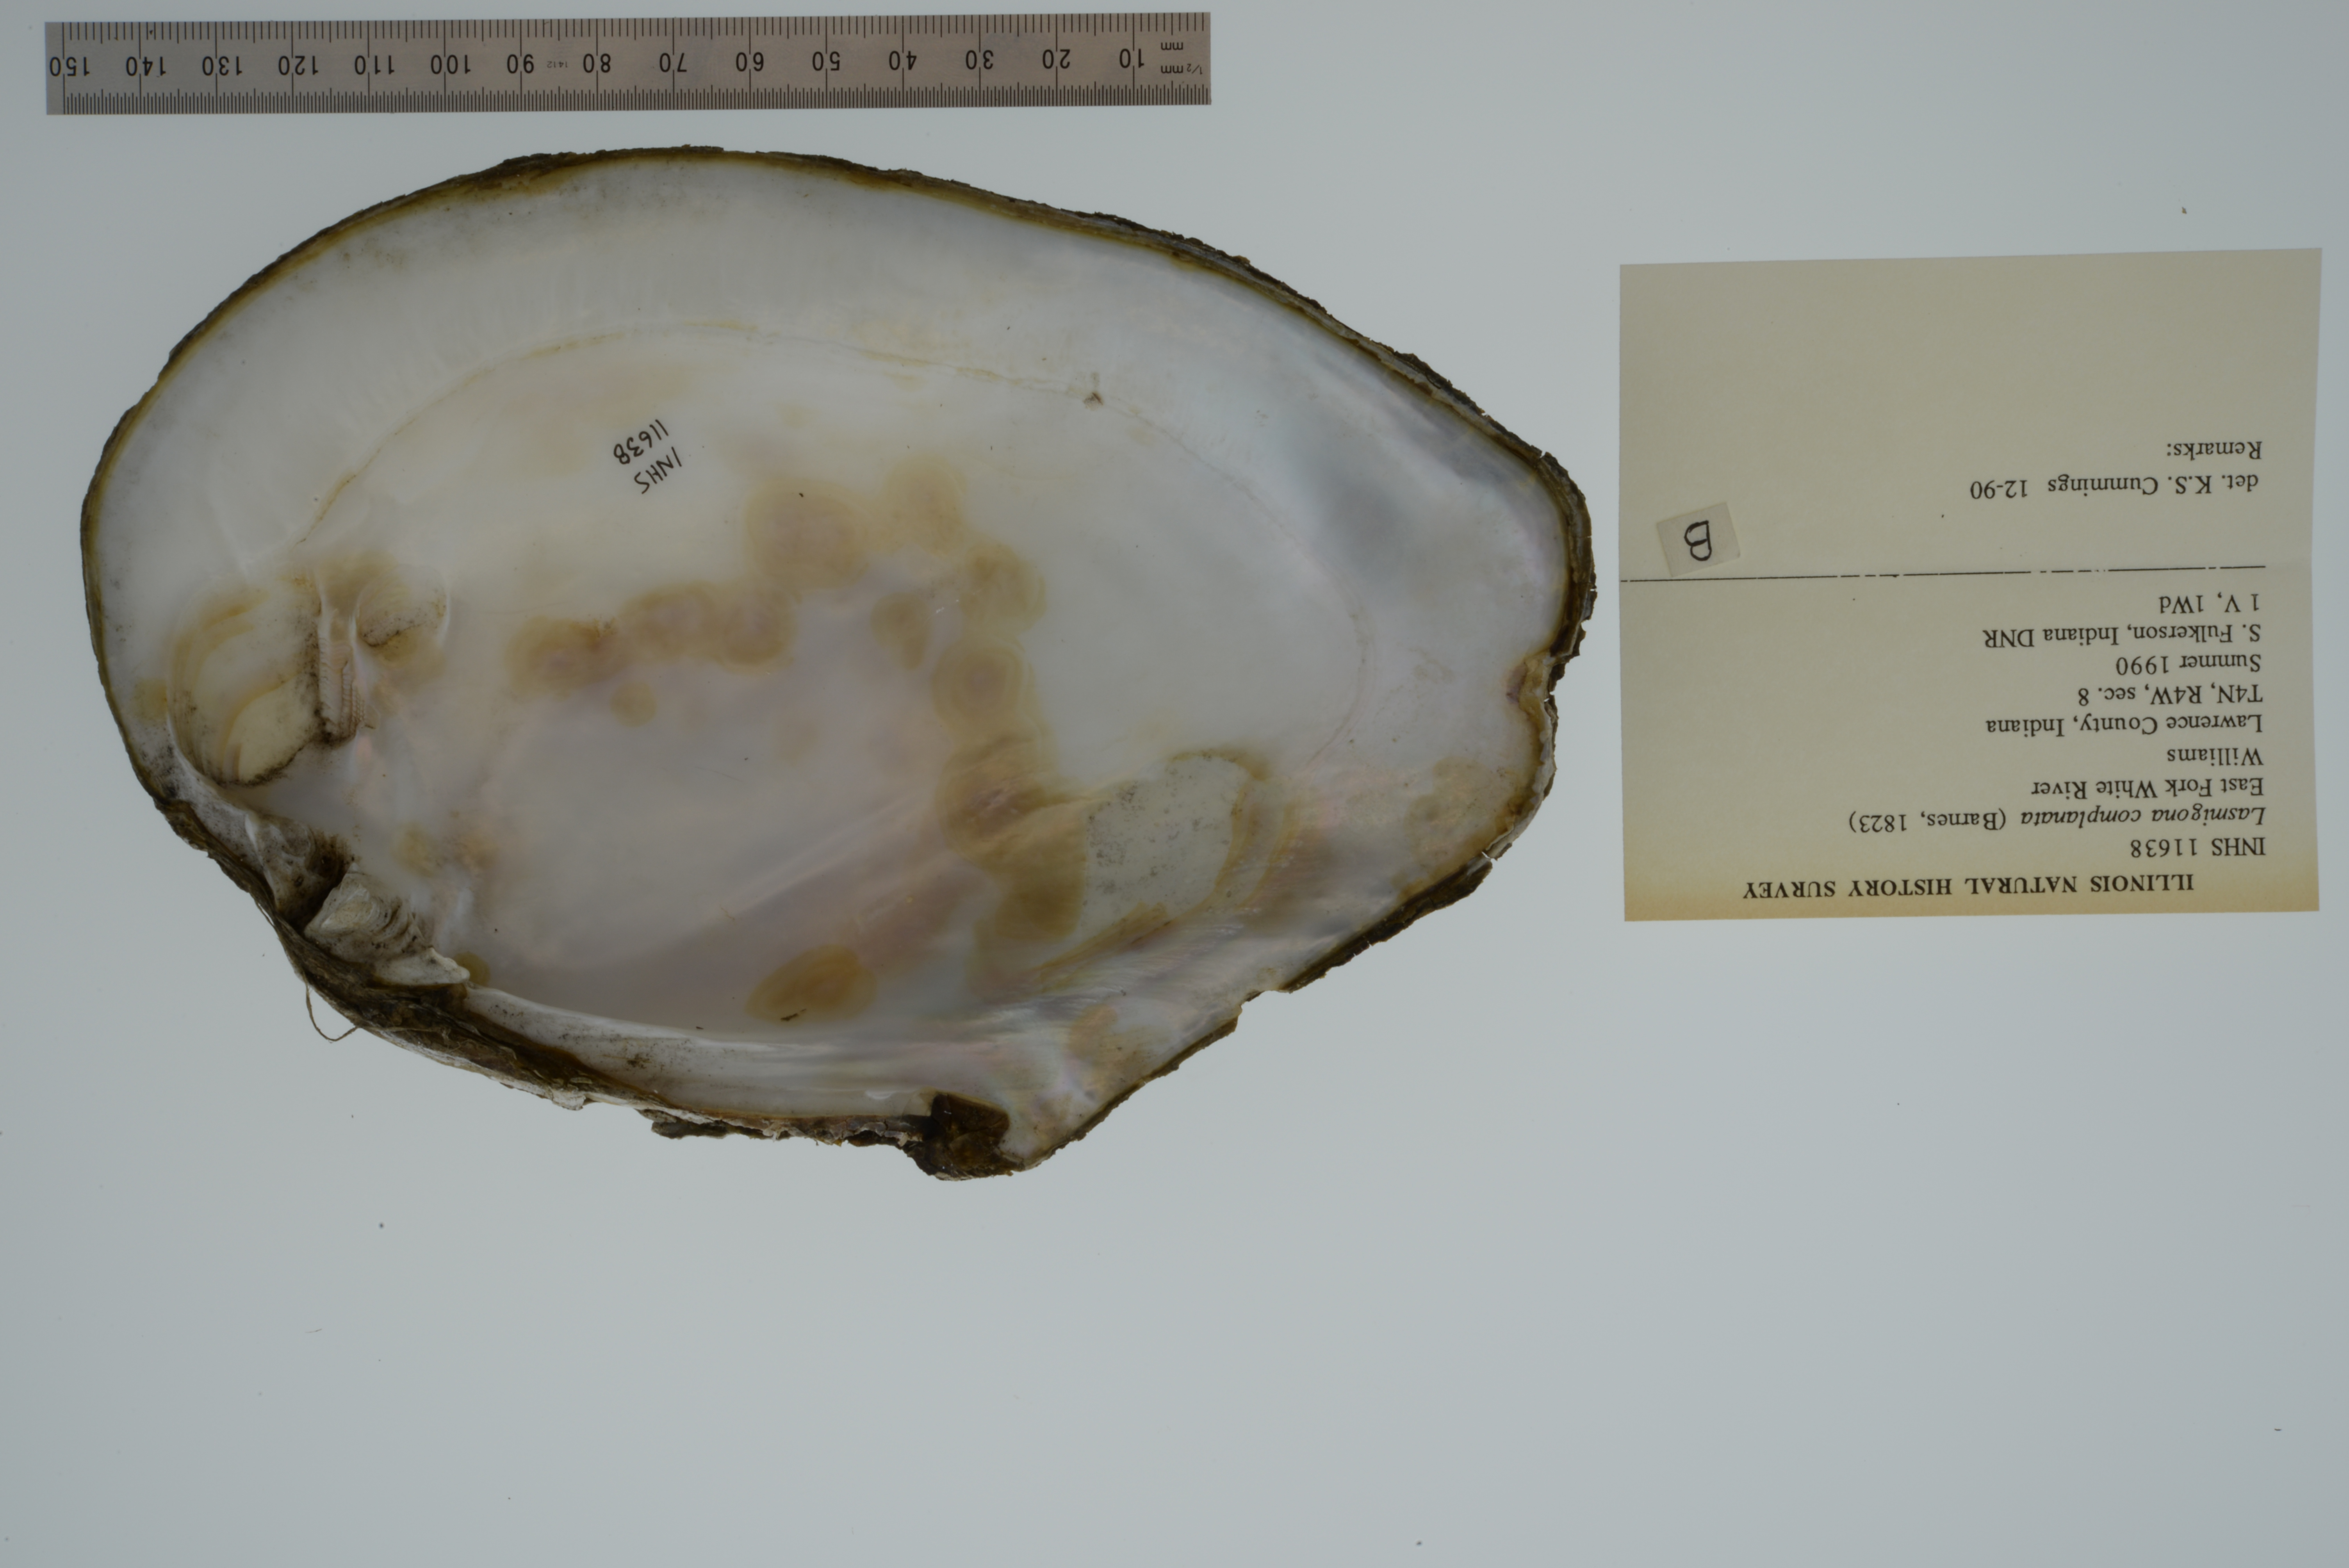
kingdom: Animalia
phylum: Mollusca
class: Bivalvia
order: Unionida
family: Unionidae
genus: Lasmigona
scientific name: Lasmigona complanata
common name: White heelsplitter
